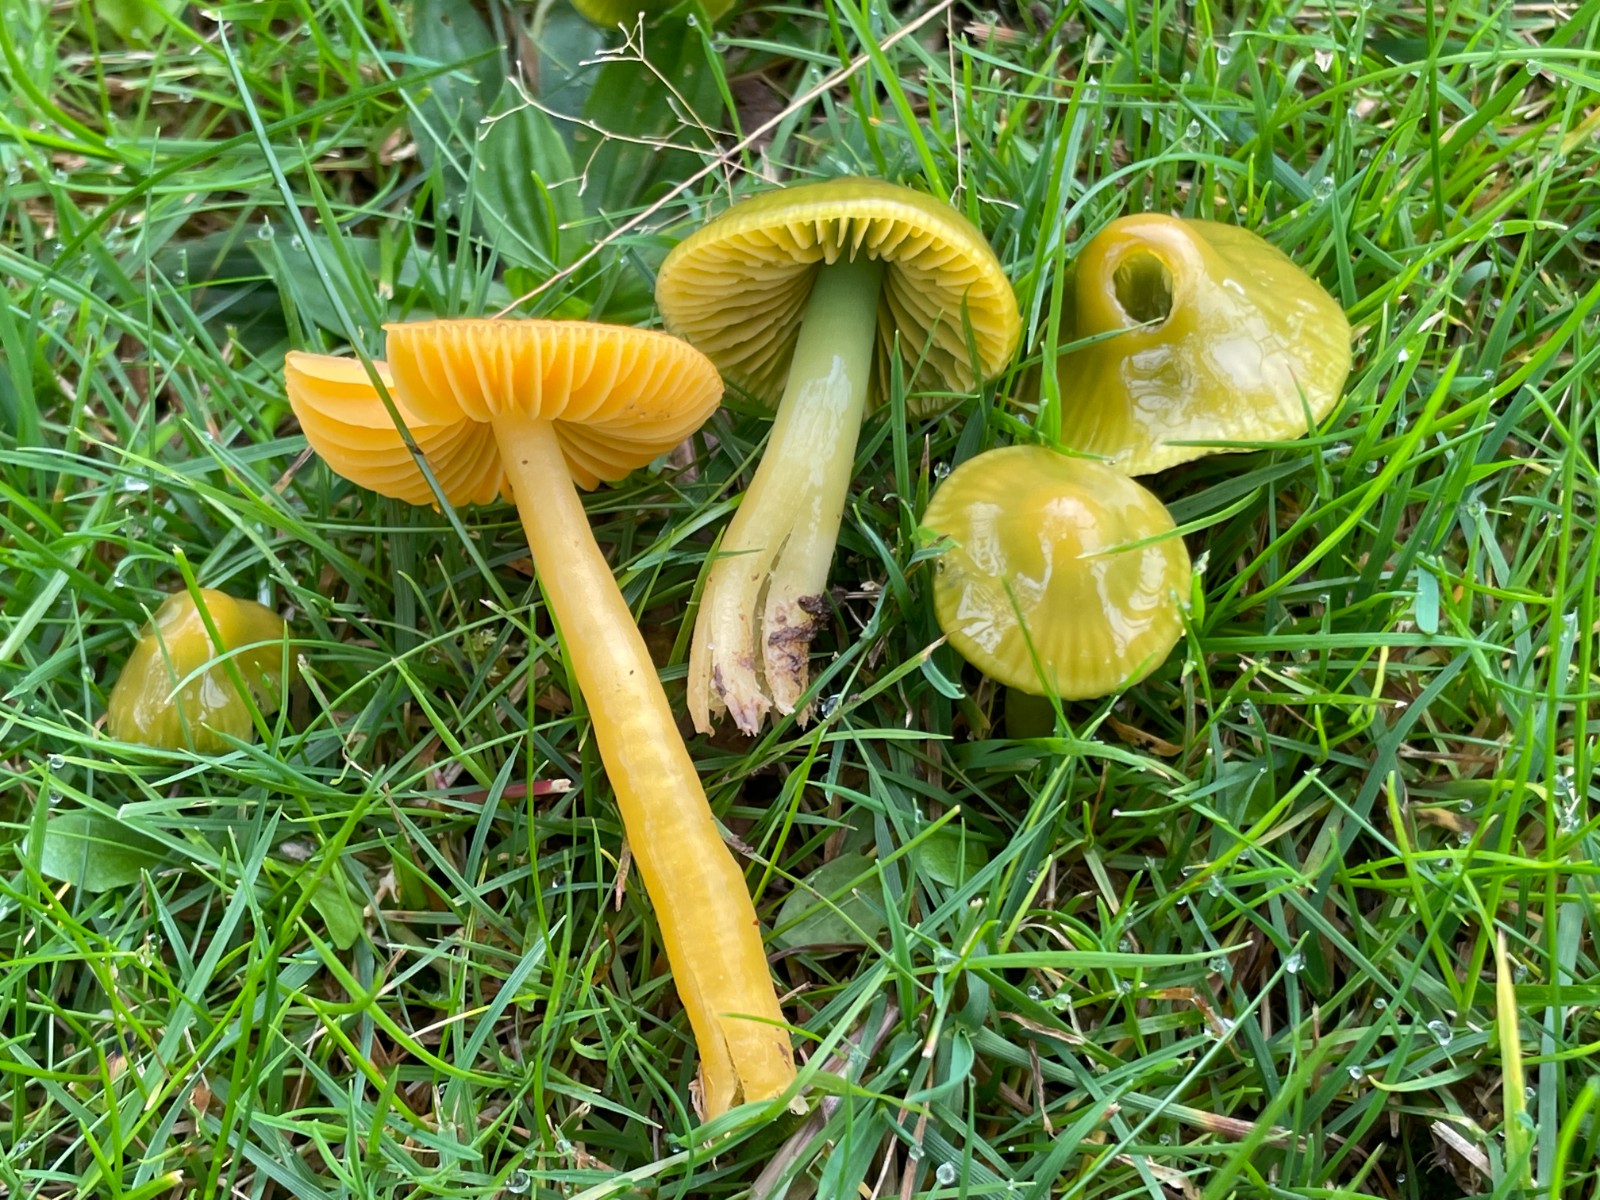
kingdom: Fungi
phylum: Basidiomycota
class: Agaricomycetes
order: Agaricales
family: Hygrophoraceae
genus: Gliophorus
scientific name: Gliophorus psittacinus
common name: papegøje-vokshat
